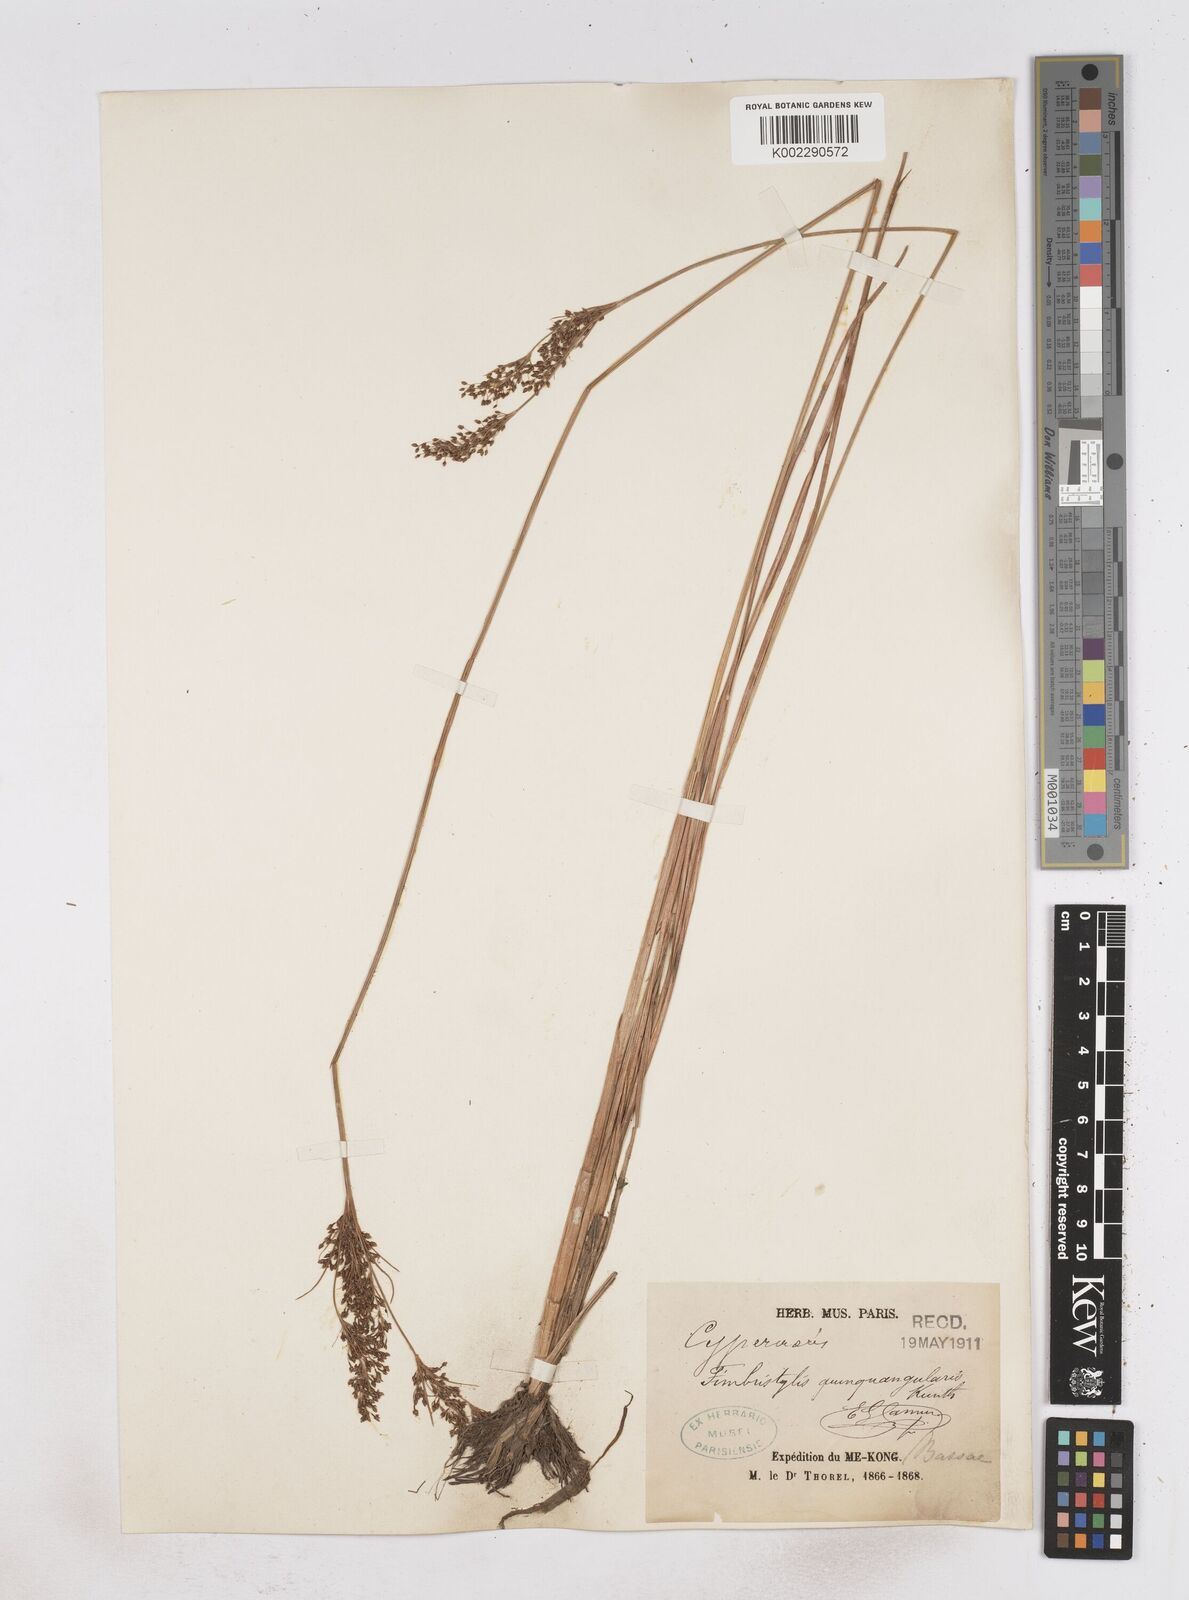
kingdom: Plantae
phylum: Tracheophyta
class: Liliopsida
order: Poales
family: Cyperaceae
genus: Fimbristylis
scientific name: Fimbristylis quinquangularis
